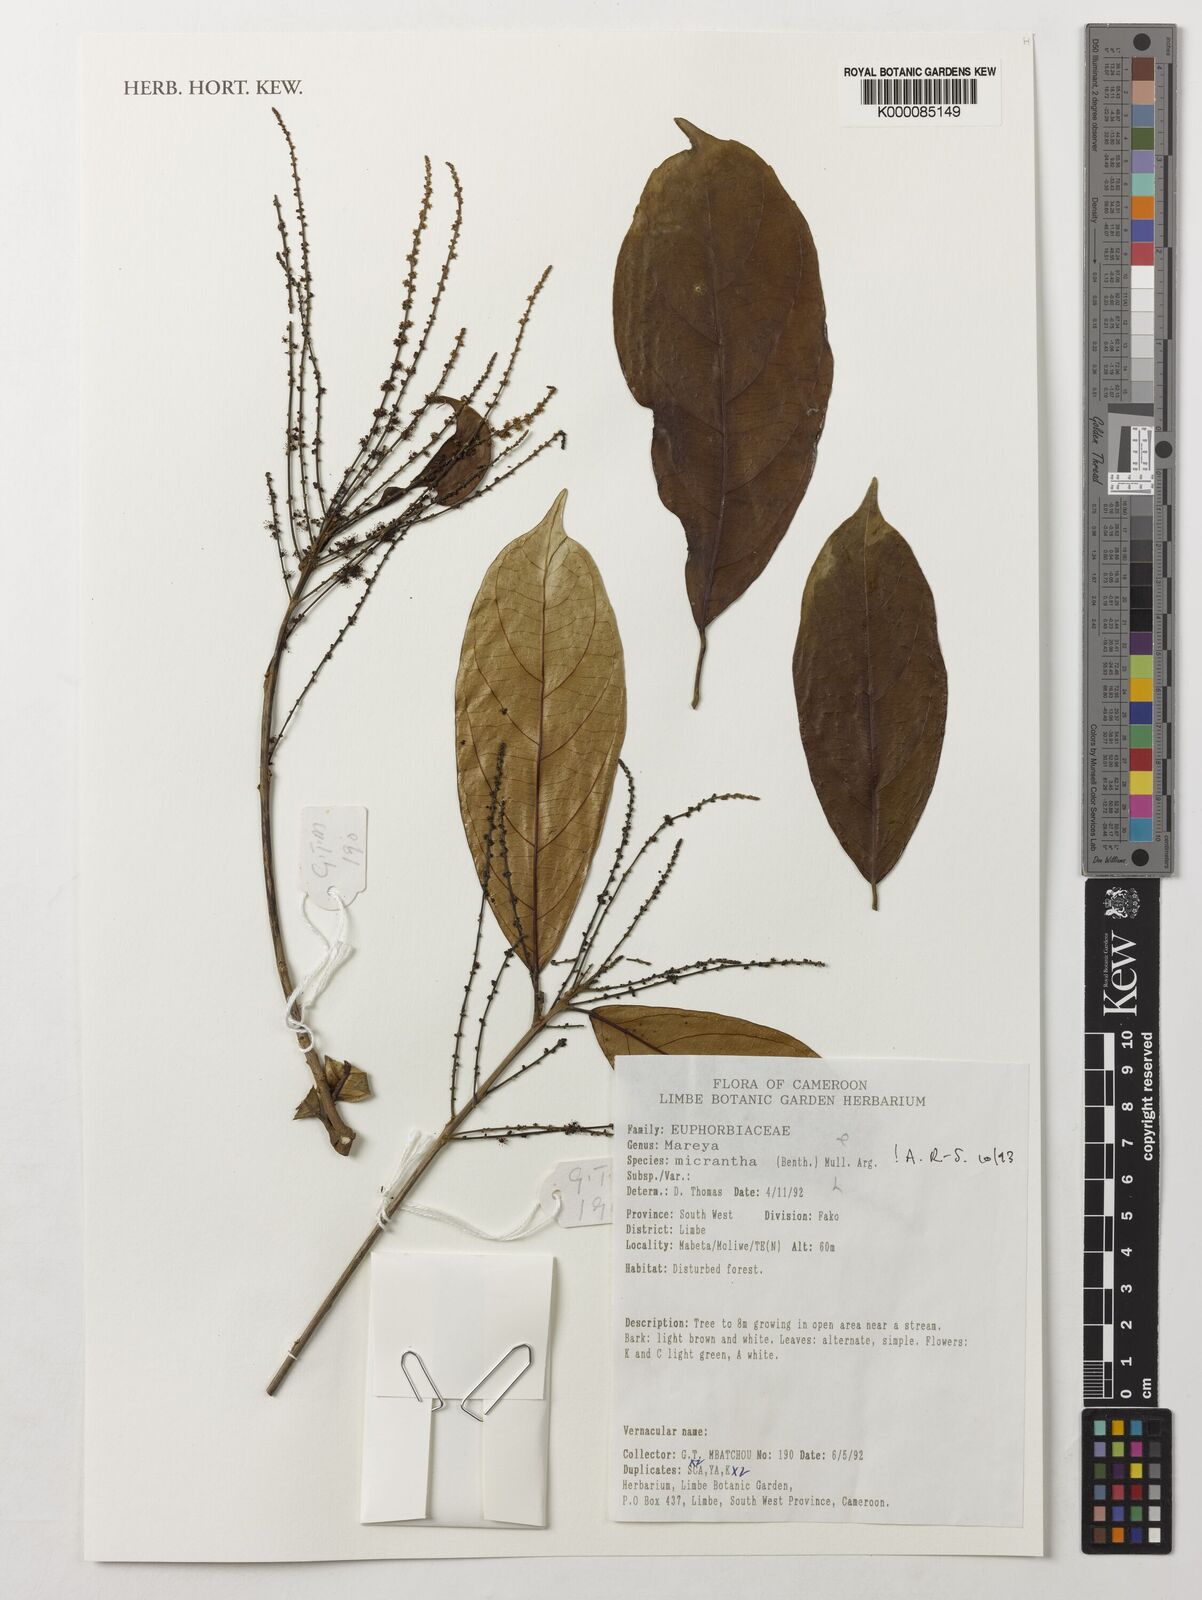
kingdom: Plantae
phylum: Tracheophyta
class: Magnoliopsida
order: Malpighiales
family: Euphorbiaceae
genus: Mareya
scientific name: Mareya
